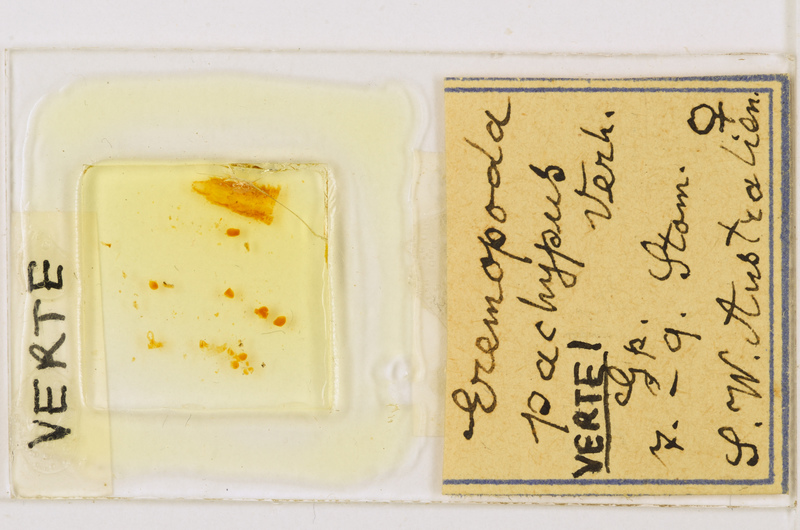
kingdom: Animalia
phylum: Arthropoda
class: Chilopoda
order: Scutigeromorpha
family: Scutigeridae
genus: Pesvarus
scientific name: Pesvarus pachypus
